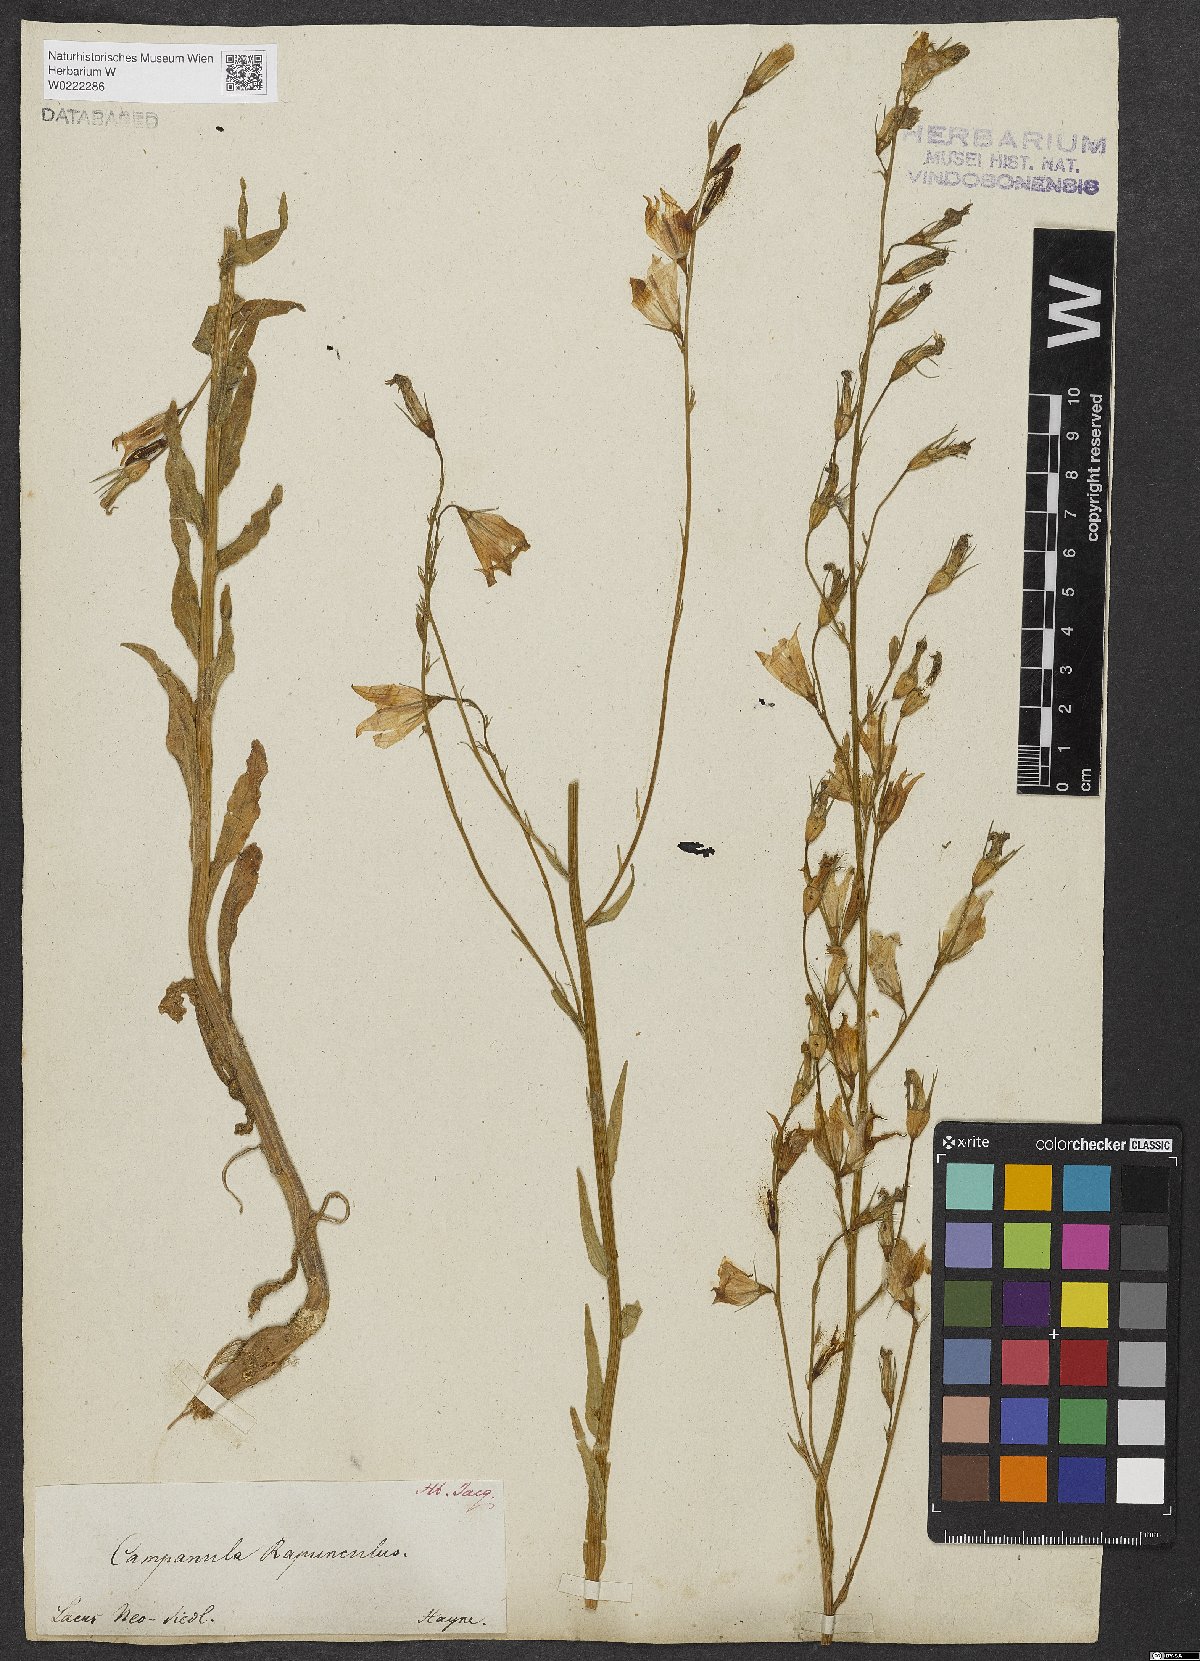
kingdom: Plantae
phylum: Tracheophyta
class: Magnoliopsida
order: Asterales
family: Campanulaceae
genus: Campanula
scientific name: Campanula rapunculus
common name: Rampion bellflower
